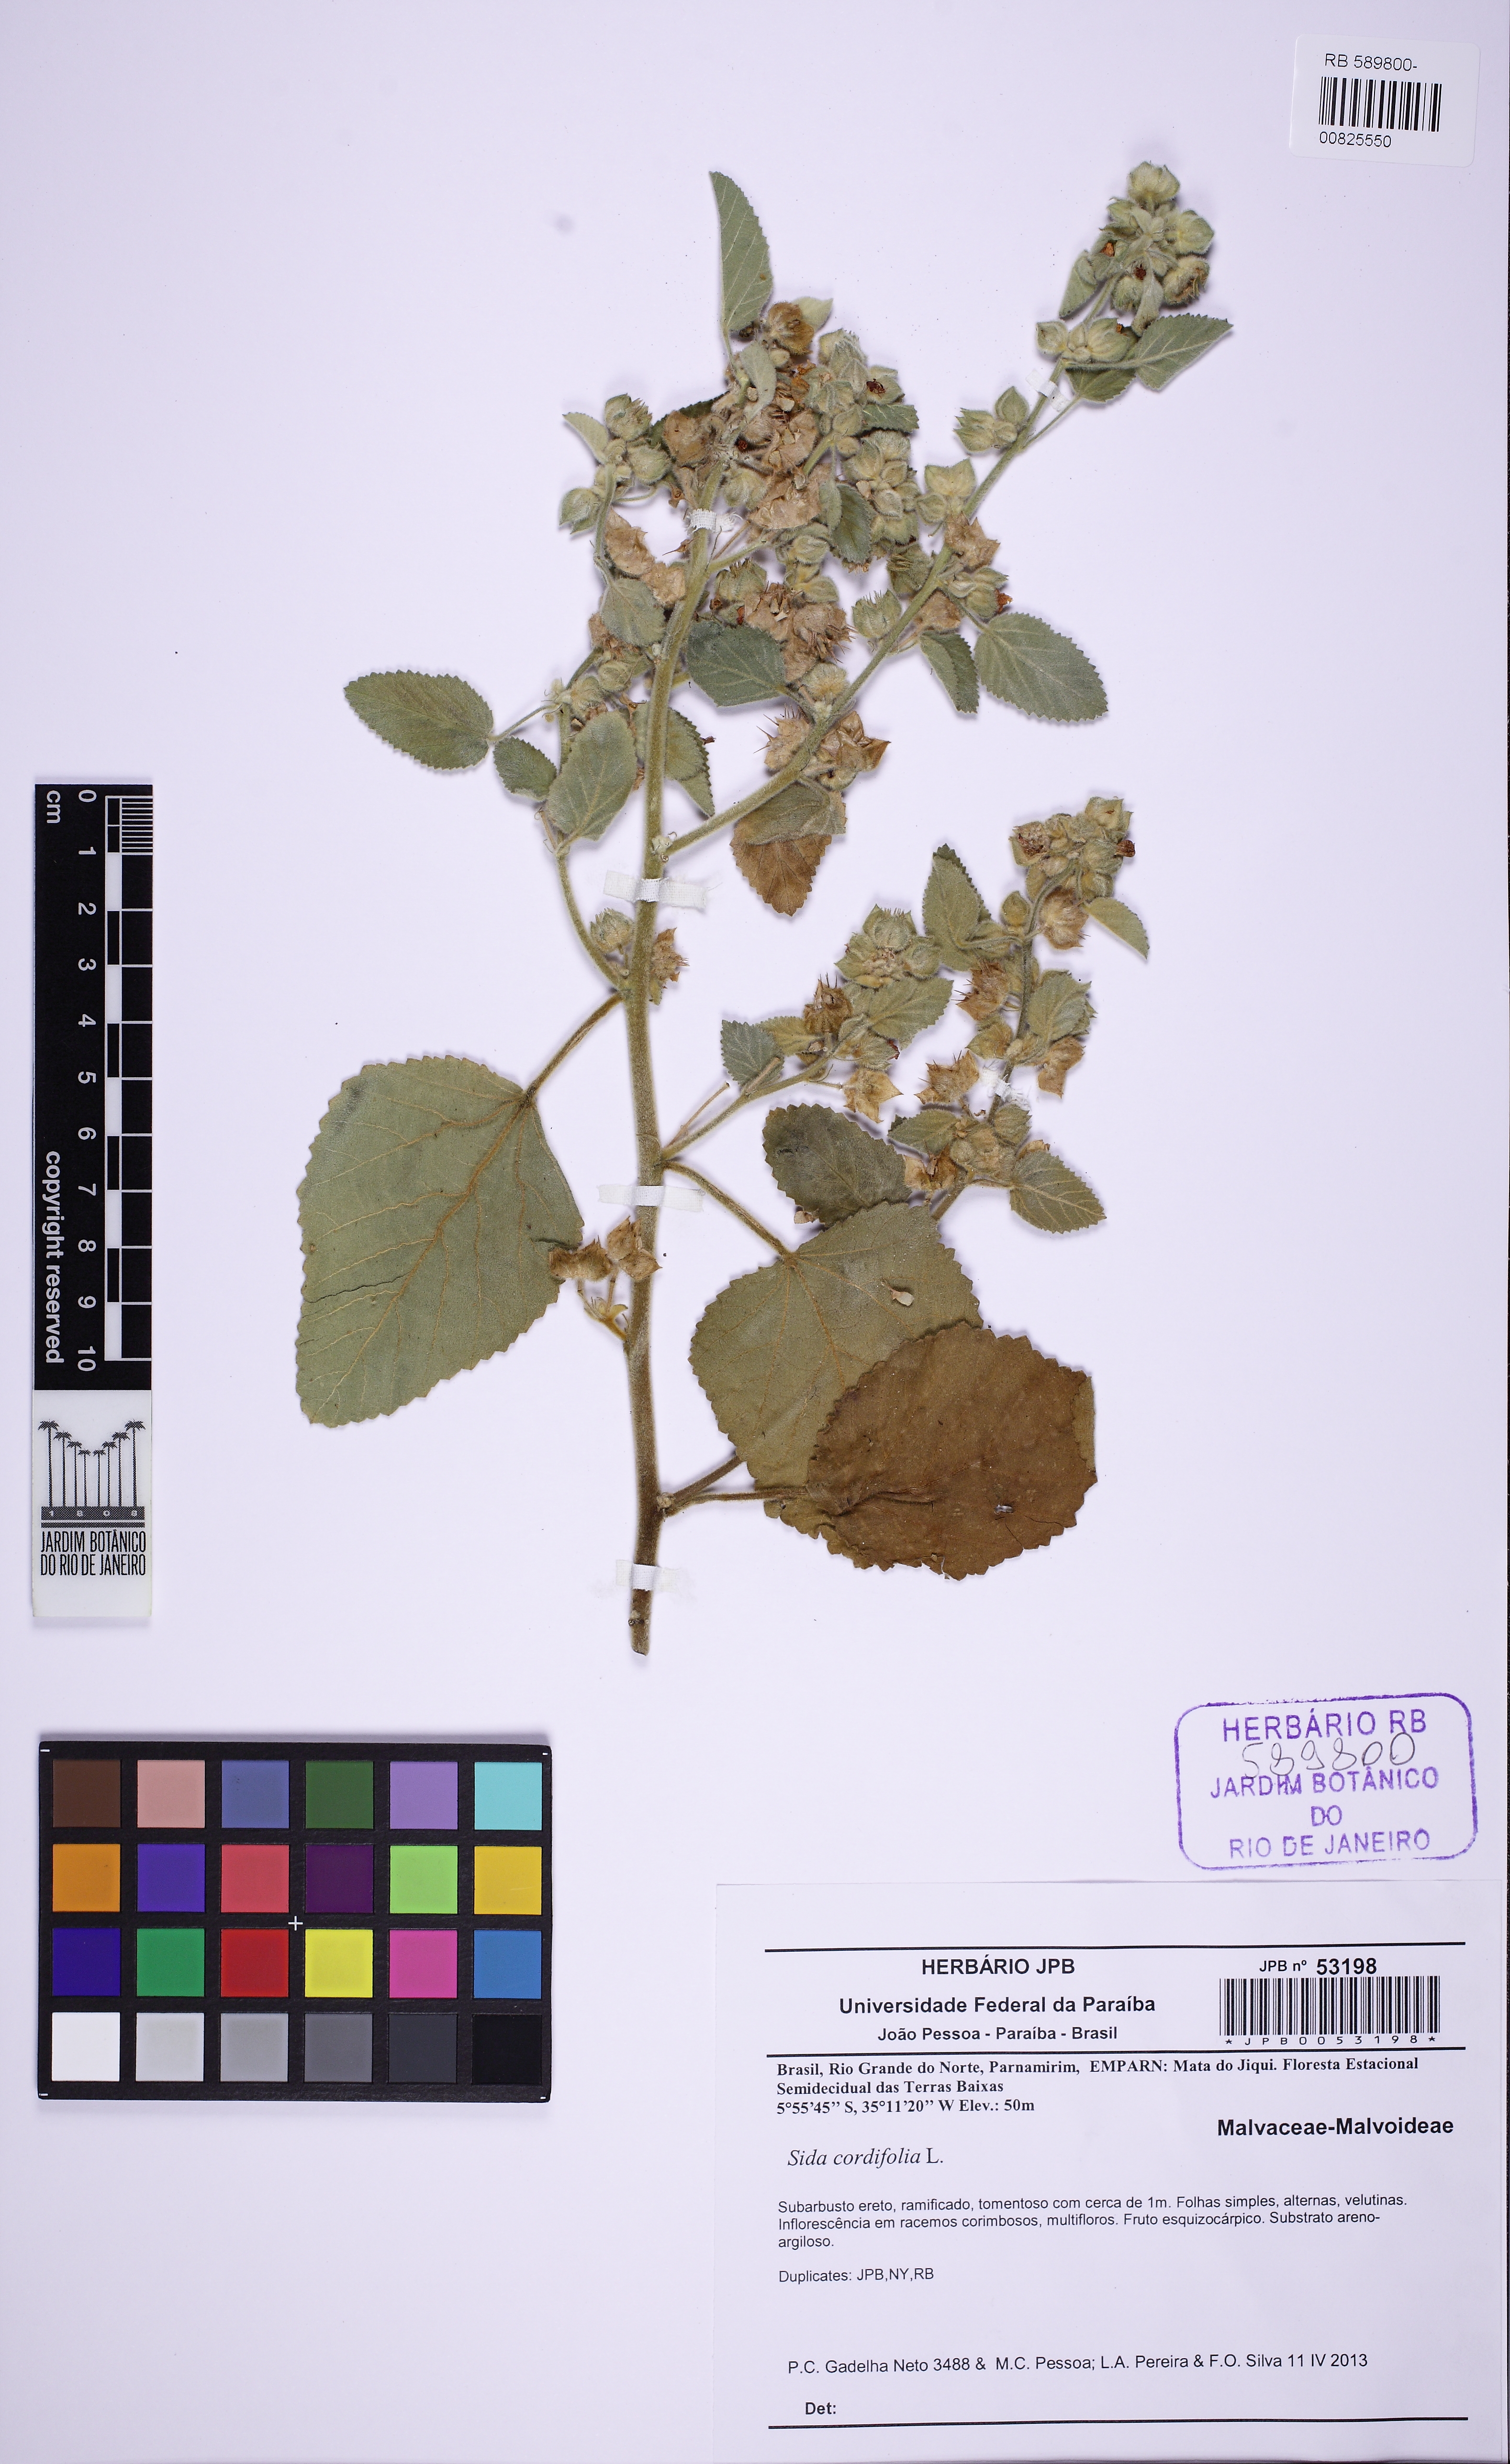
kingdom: Plantae
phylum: Tracheophyta
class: Magnoliopsida
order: Malvales
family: Malvaceae
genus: Sida
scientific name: Sida cordifolia
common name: Ilima
